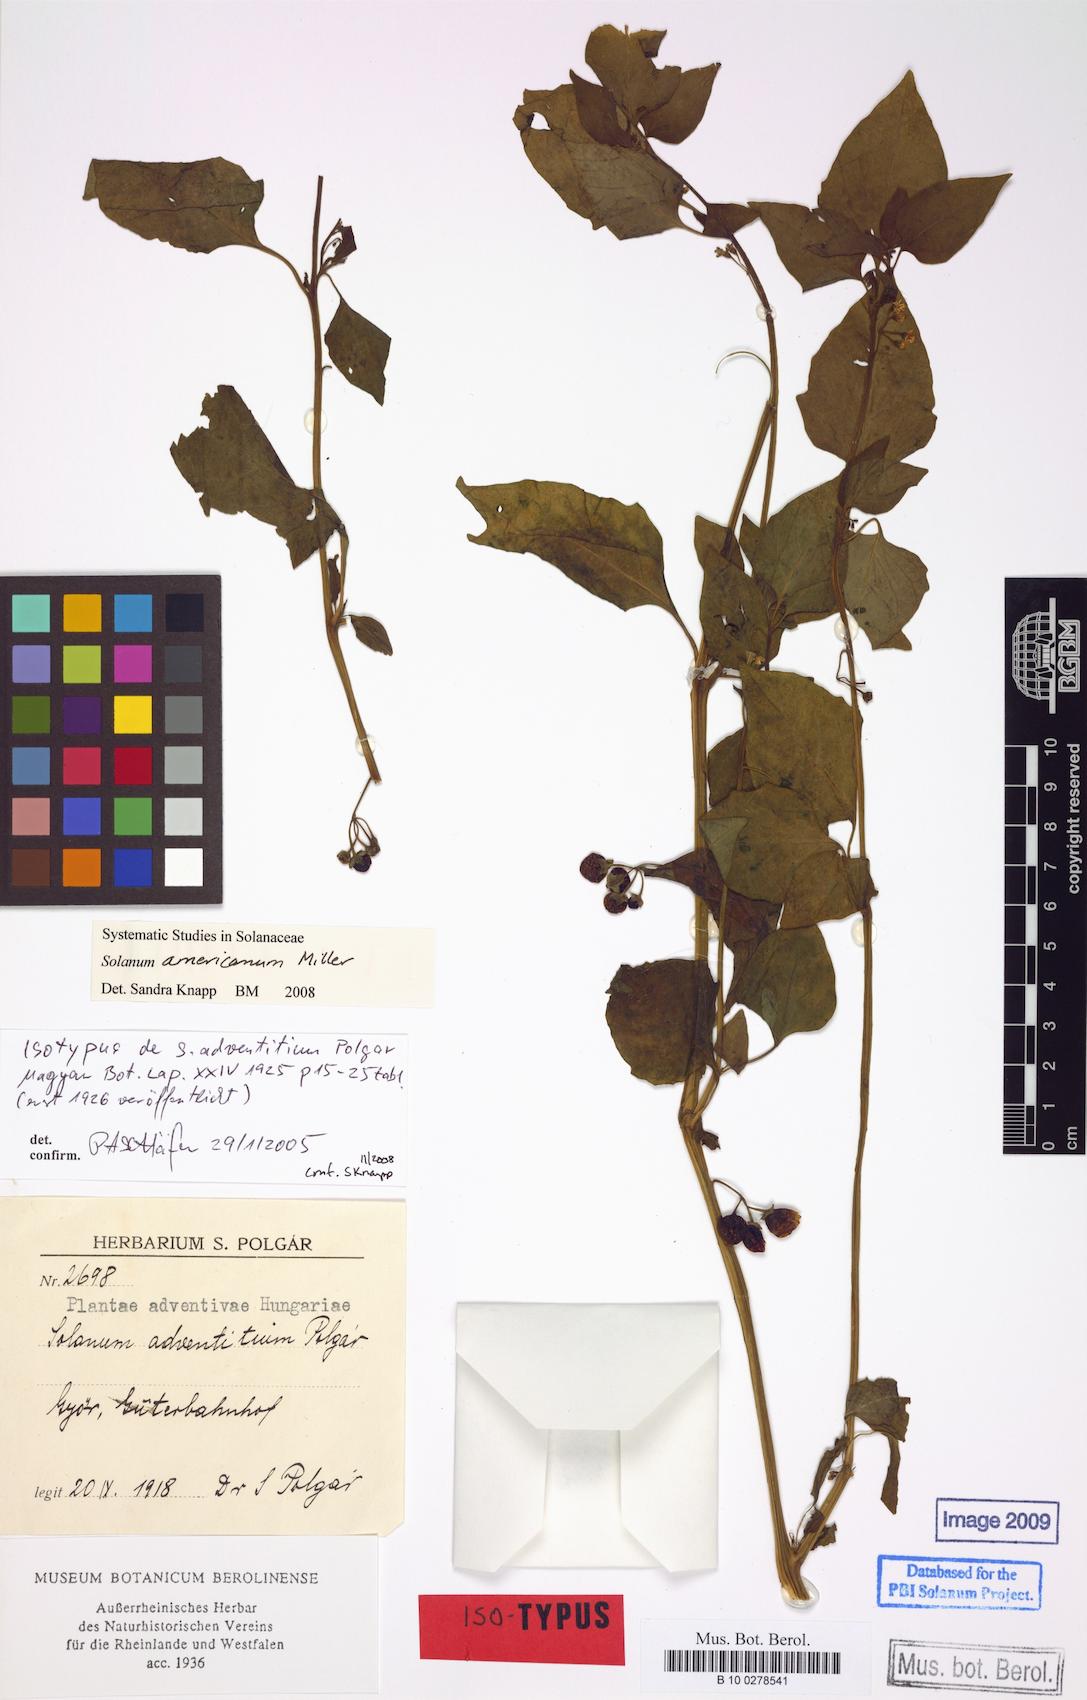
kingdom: Plantae
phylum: Tracheophyta
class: Magnoliopsida
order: Solanales
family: Solanaceae
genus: Solanum
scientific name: Solanum americanum
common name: American black nightshade
